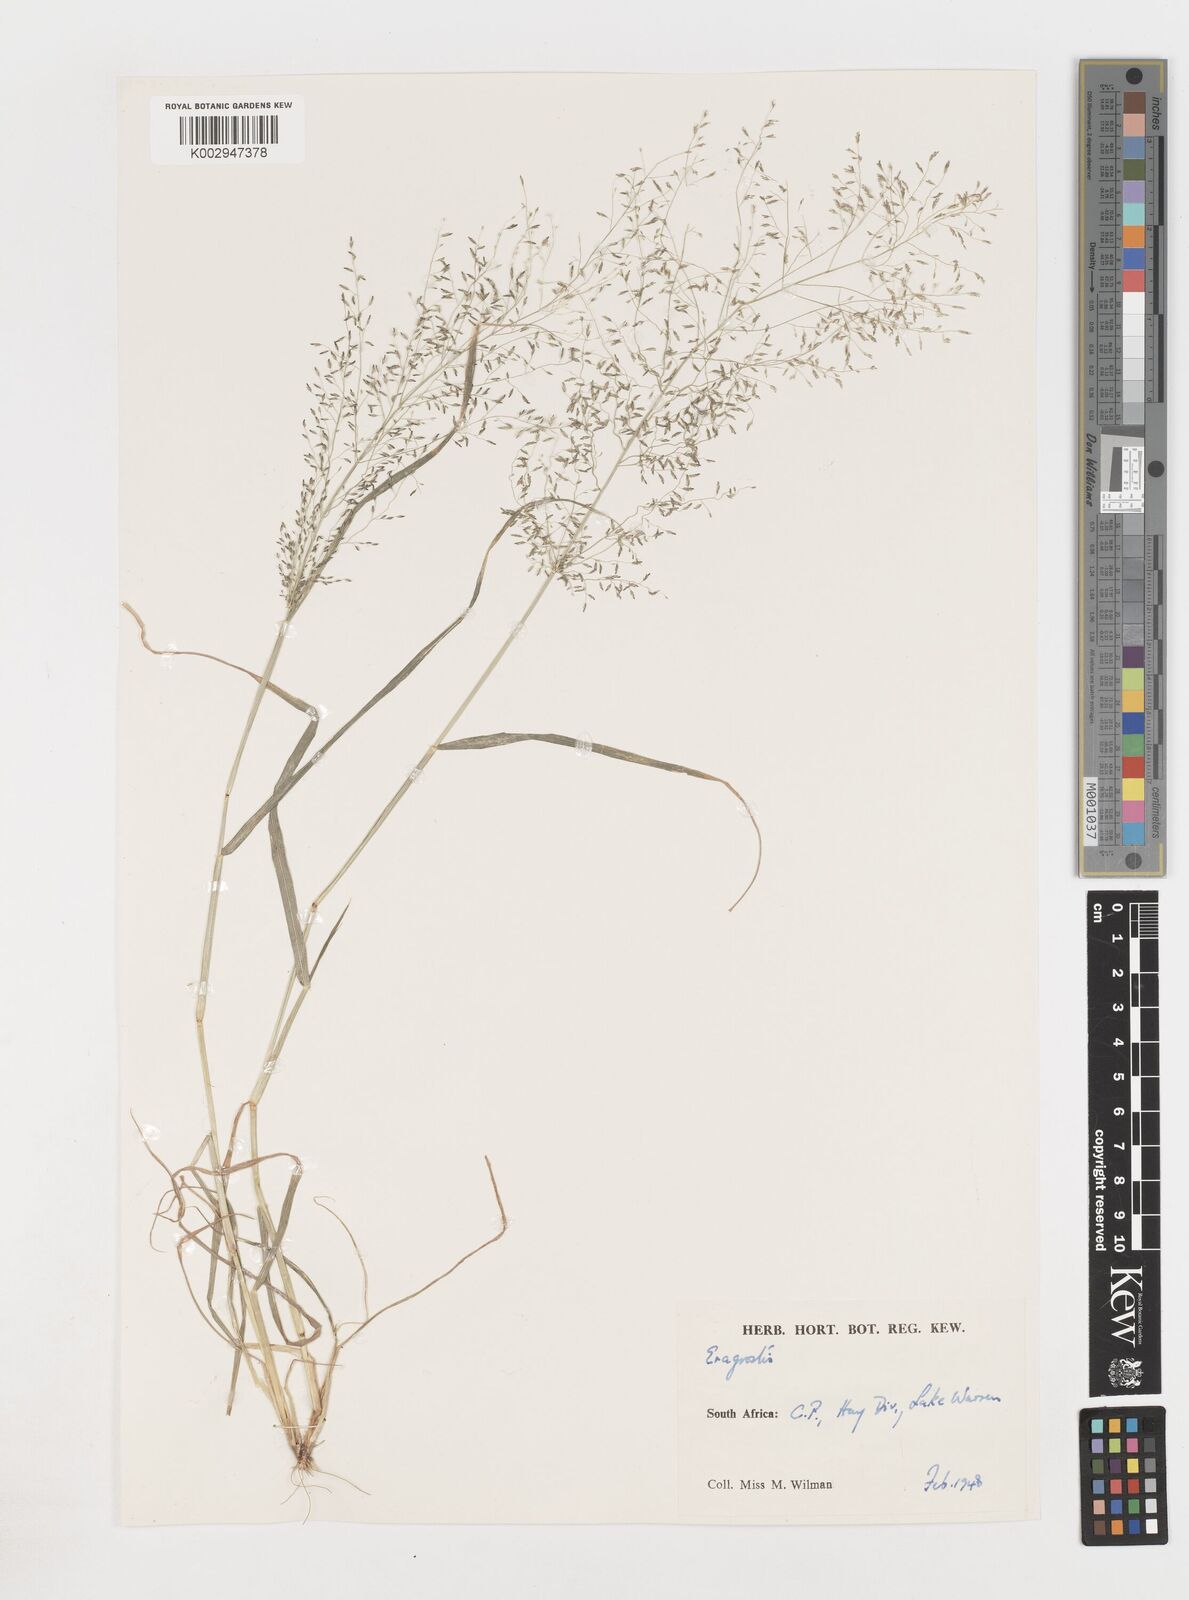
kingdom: Plantae
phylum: Tracheophyta
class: Liliopsida
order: Poales
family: Poaceae
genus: Eragrostis
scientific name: Eragrostis
